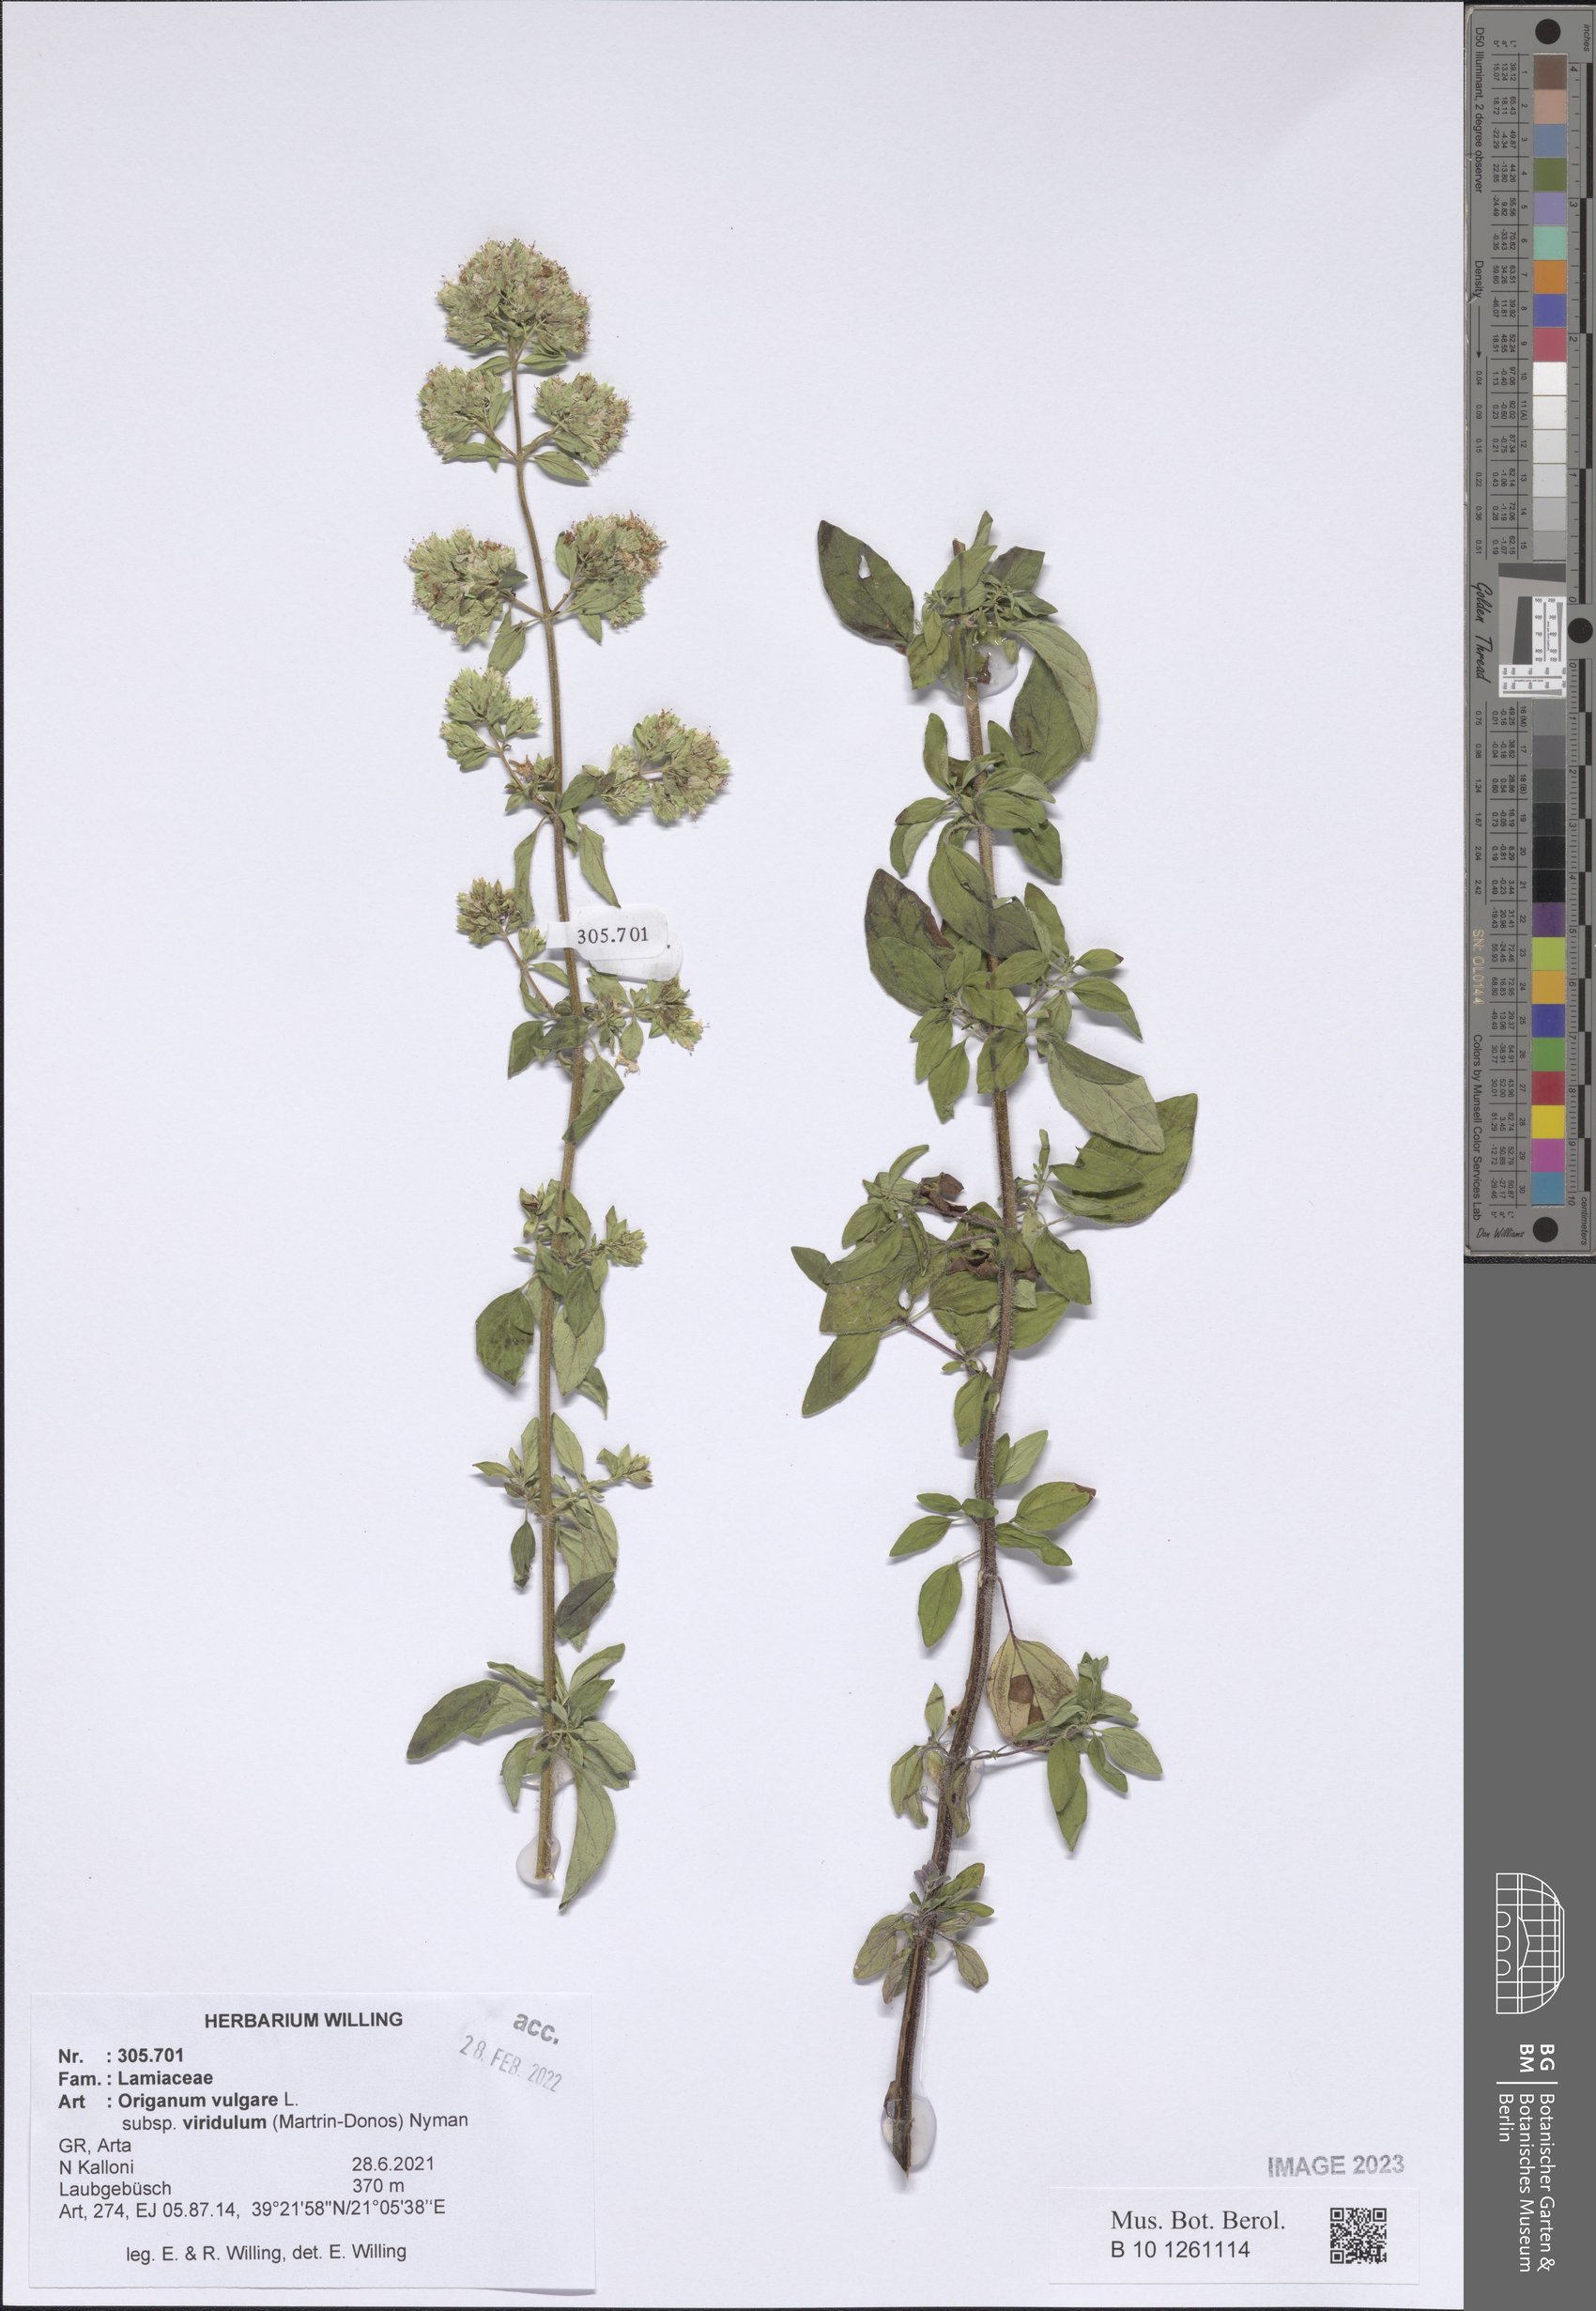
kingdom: Plantae
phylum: Tracheophyta
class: Magnoliopsida
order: Lamiales
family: Lamiaceae
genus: Origanum
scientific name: Origanum vulgare
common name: Wild marjoram
